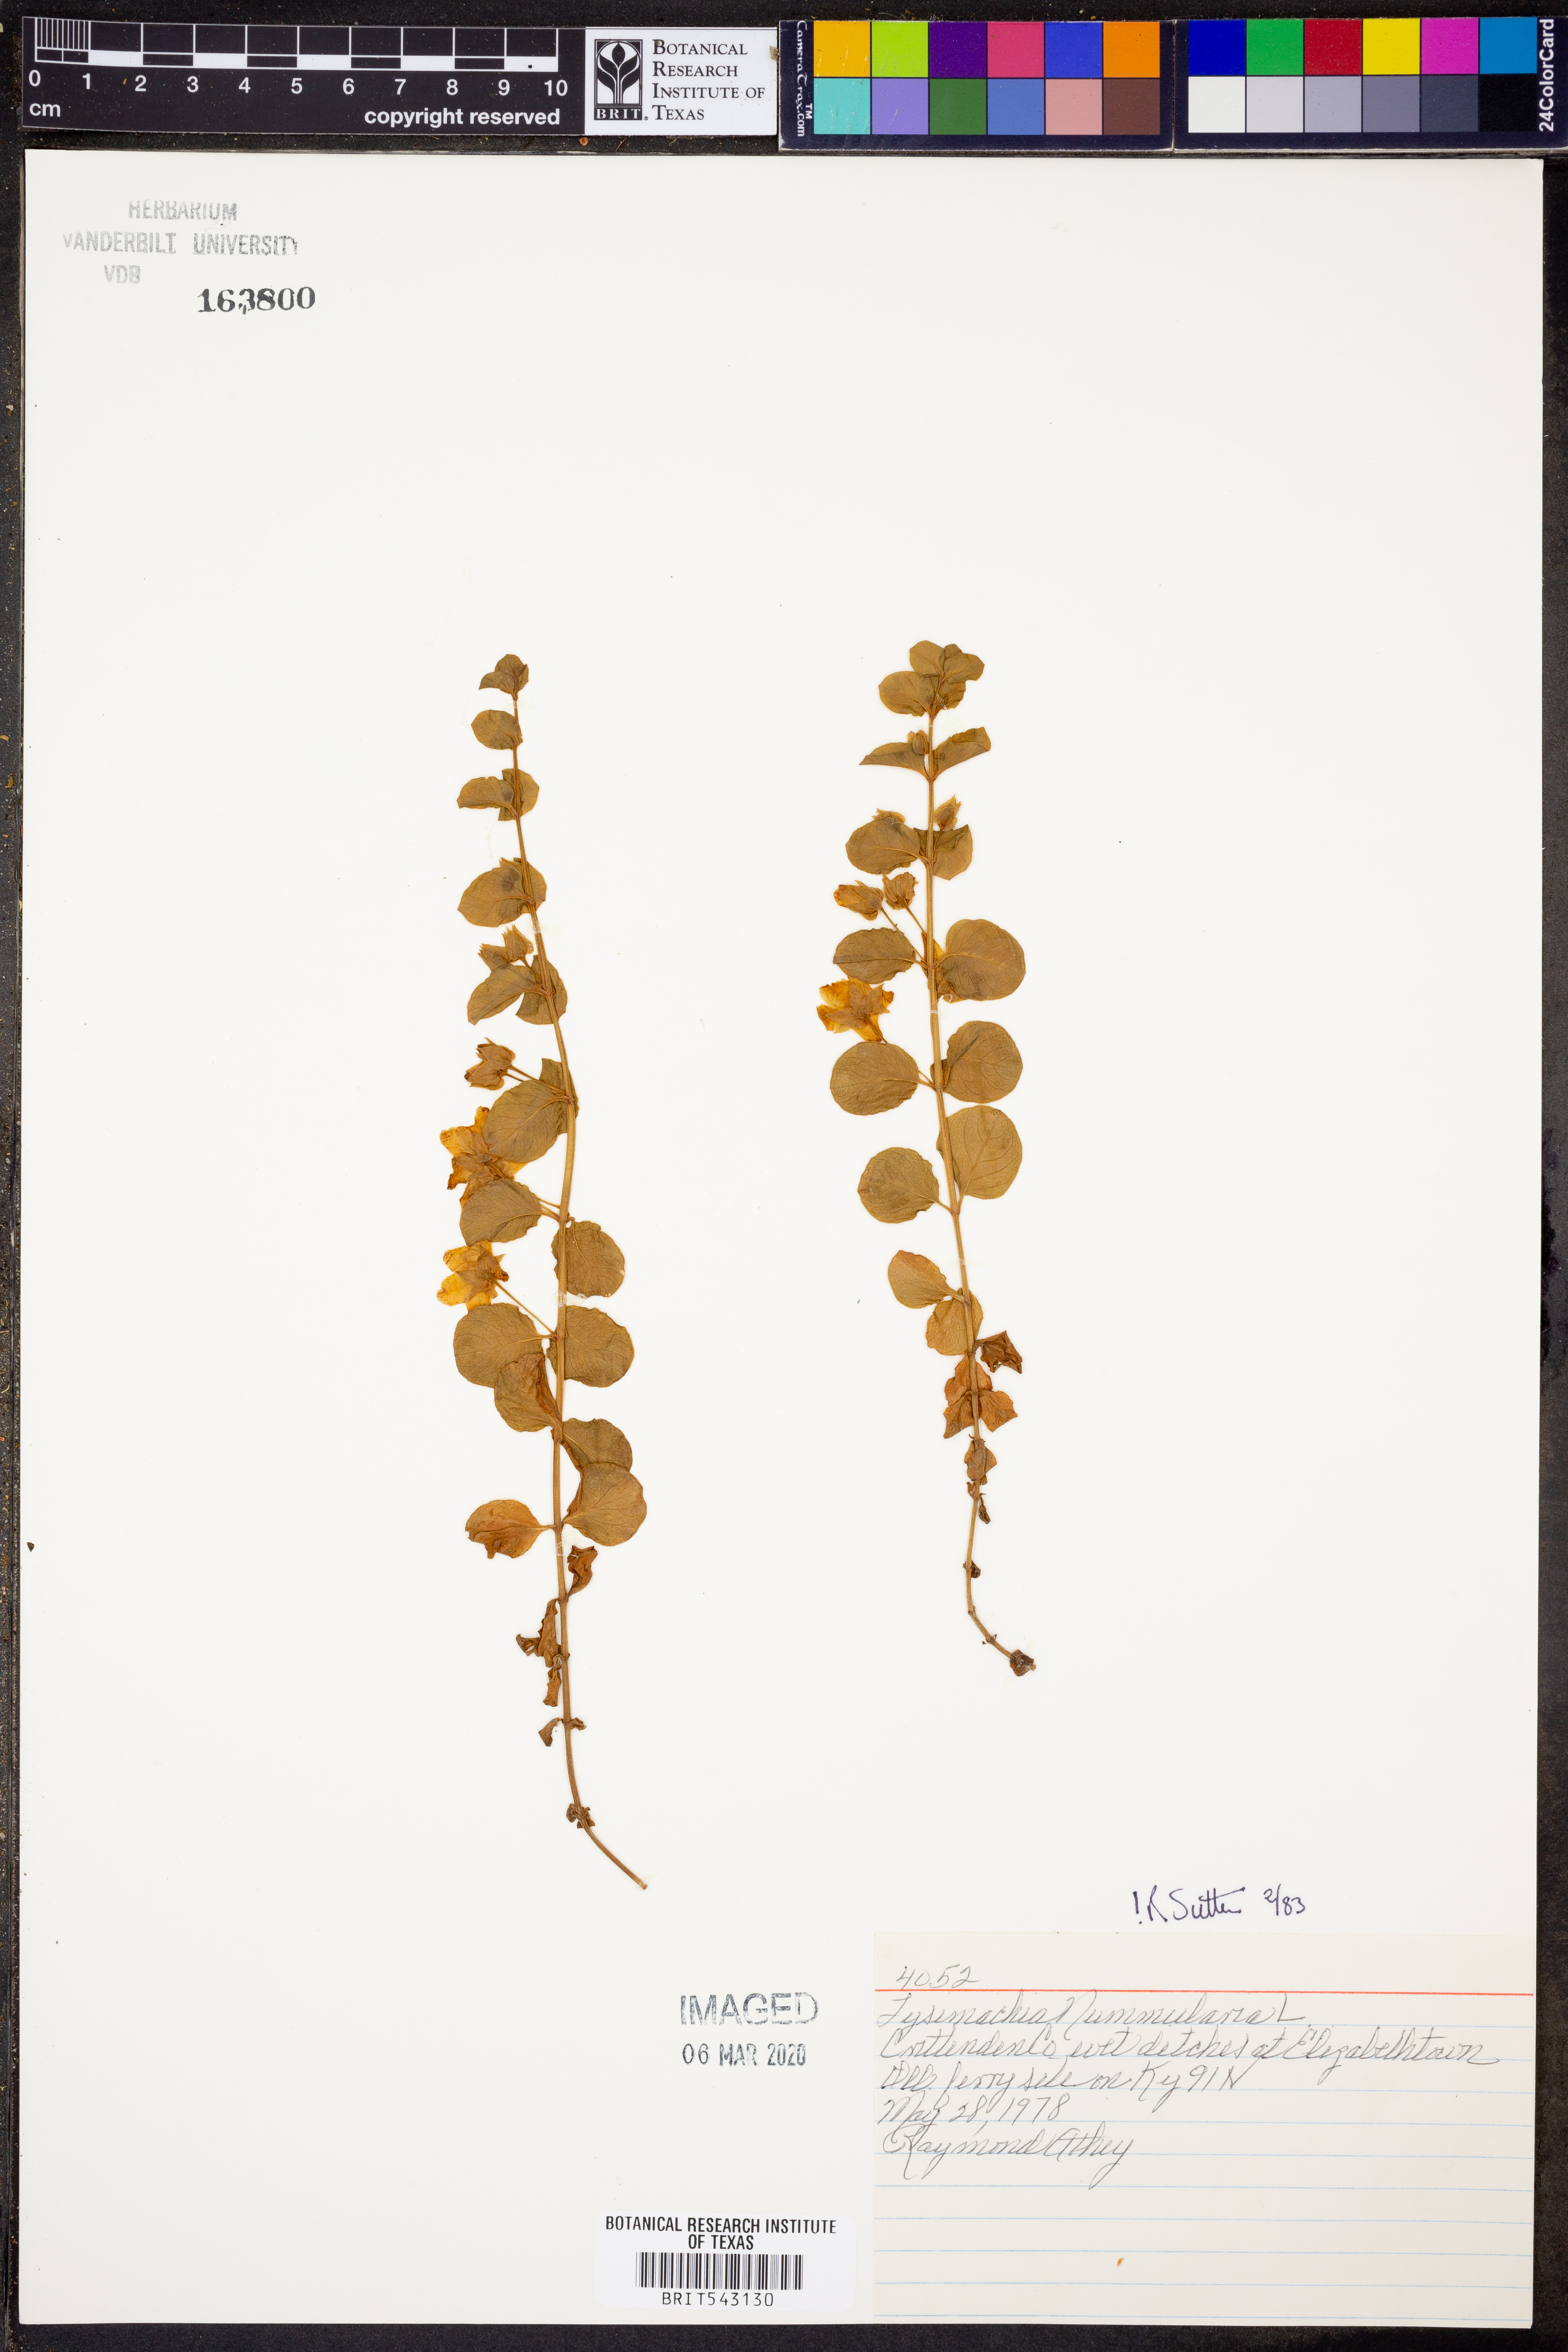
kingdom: Plantae
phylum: Tracheophyta
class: Magnoliopsida
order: Ericales
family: Primulaceae
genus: Lysimachia
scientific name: Lysimachia nummularia
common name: Moneywort
